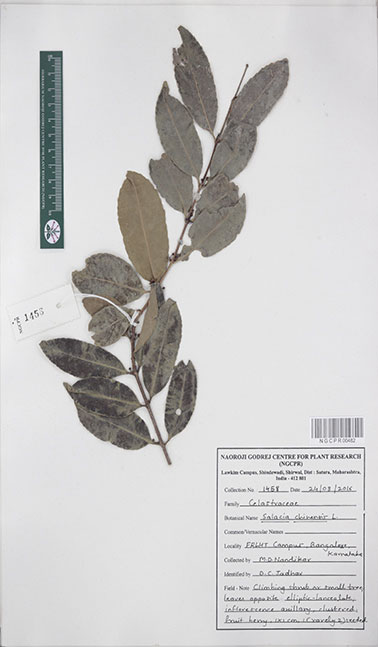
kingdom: Plantae
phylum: Tracheophyta
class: Magnoliopsida
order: Celastrales
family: Celastraceae
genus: Salacia
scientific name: Salacia chinensis
